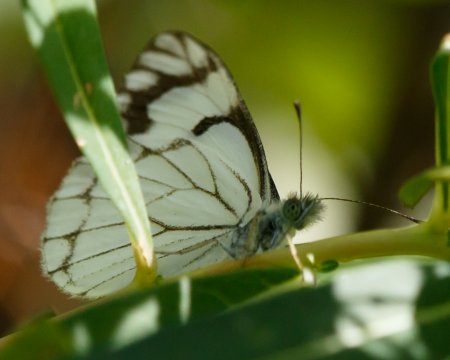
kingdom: Animalia
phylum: Arthropoda
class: Insecta
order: Lepidoptera
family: Pieridae
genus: Neophasia
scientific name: Neophasia menapia
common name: Pine White
